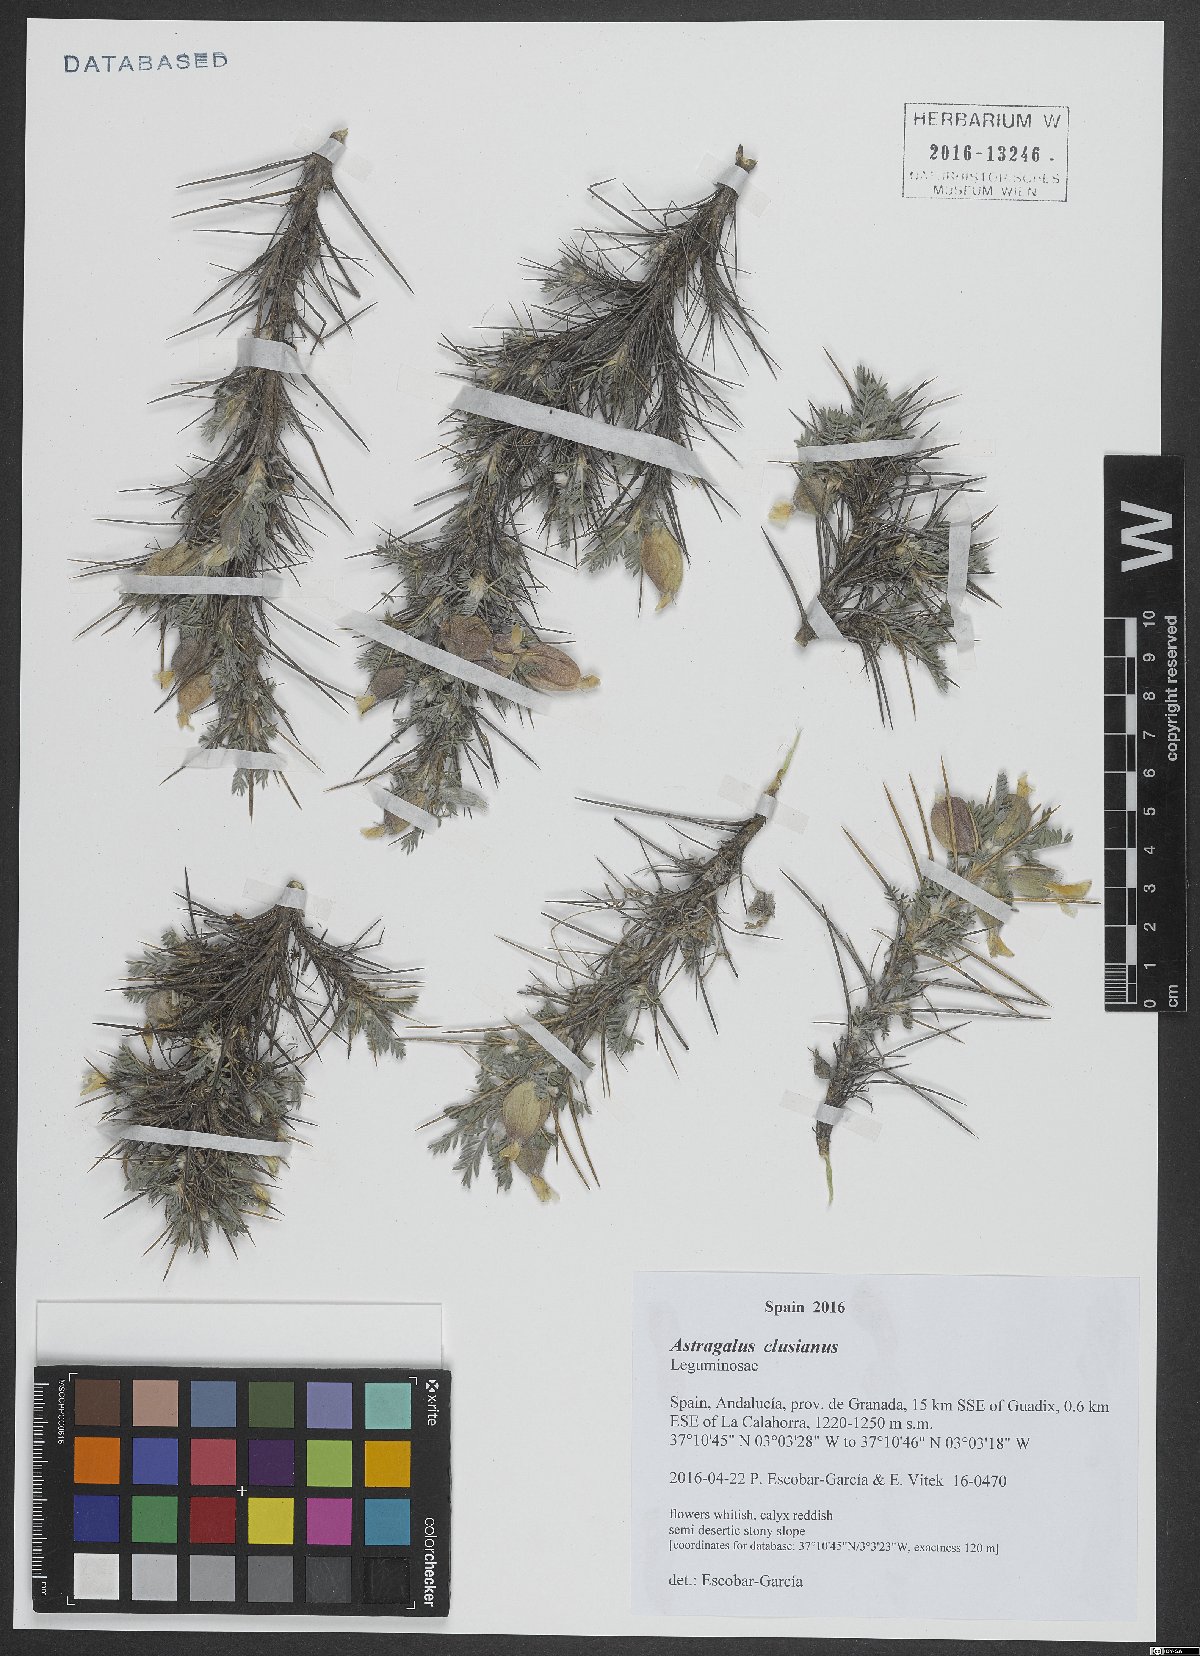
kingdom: Plantae
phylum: Tracheophyta
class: Magnoliopsida
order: Fabales
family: Fabaceae
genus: Astragalus
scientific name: Astragalus clusianus
